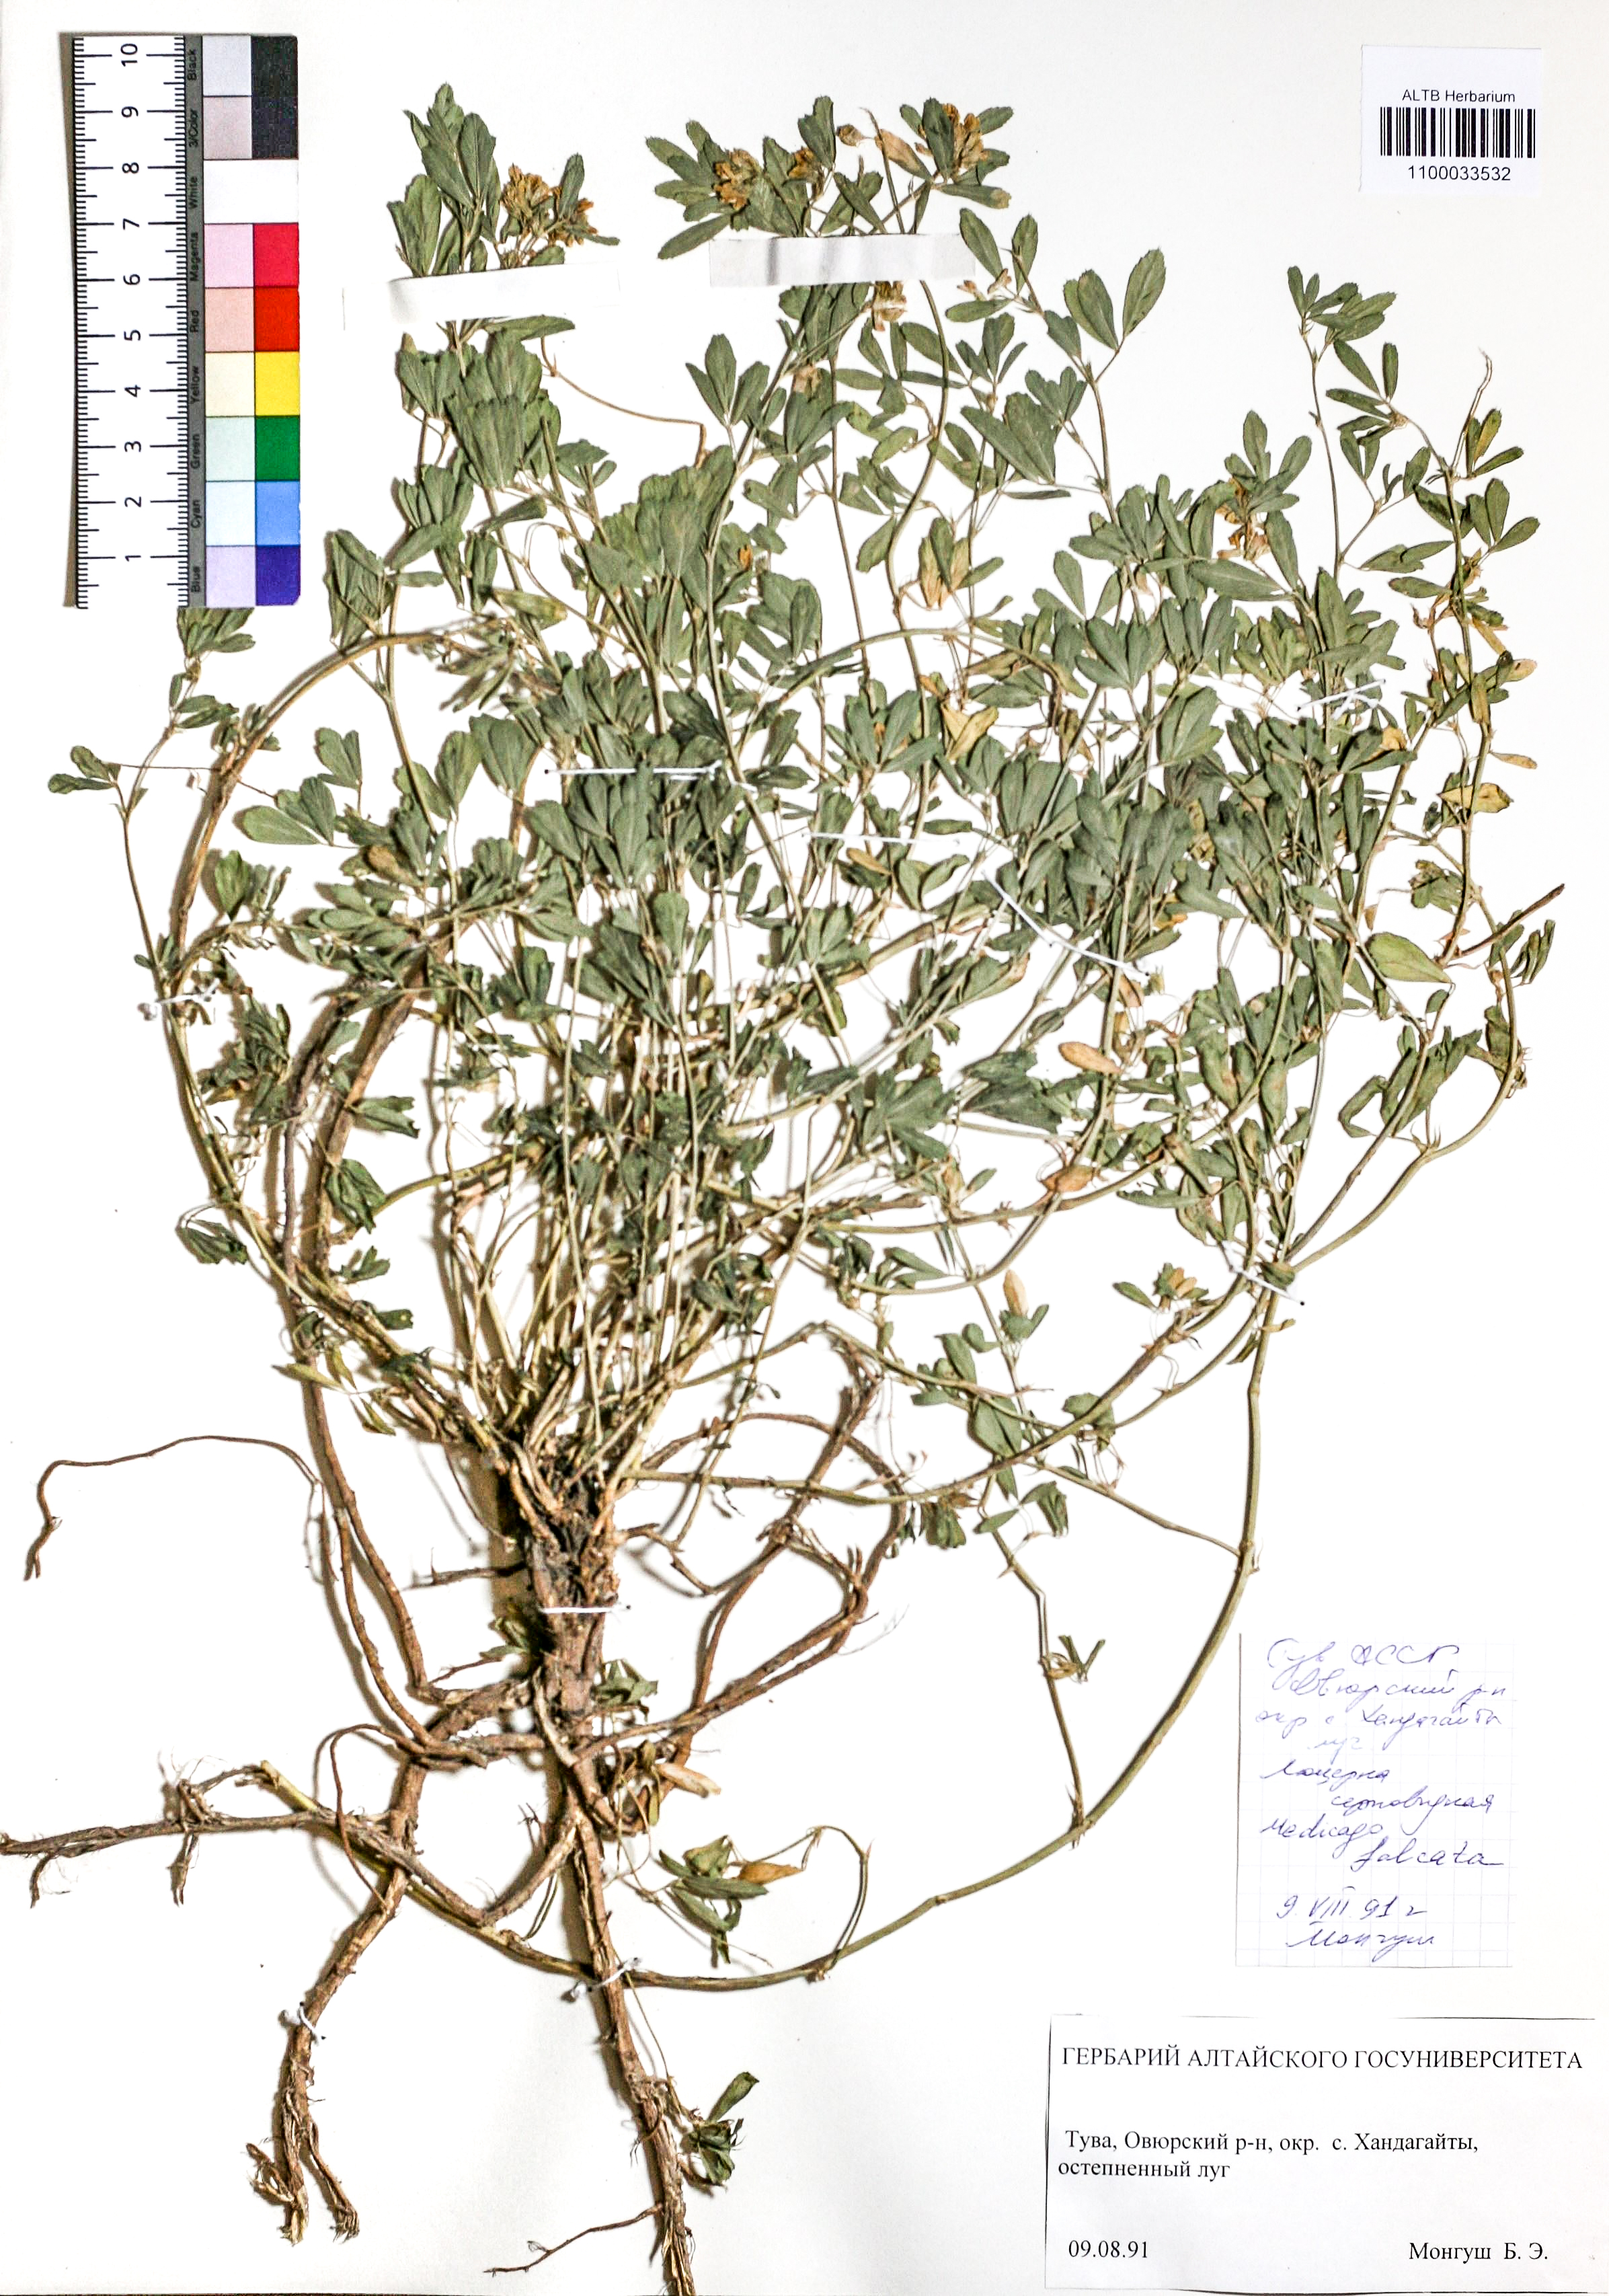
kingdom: Plantae
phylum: Tracheophyta
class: Magnoliopsida
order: Fabales
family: Fabaceae
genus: Medicago
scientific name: Medicago falcata
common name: Sickle medick
